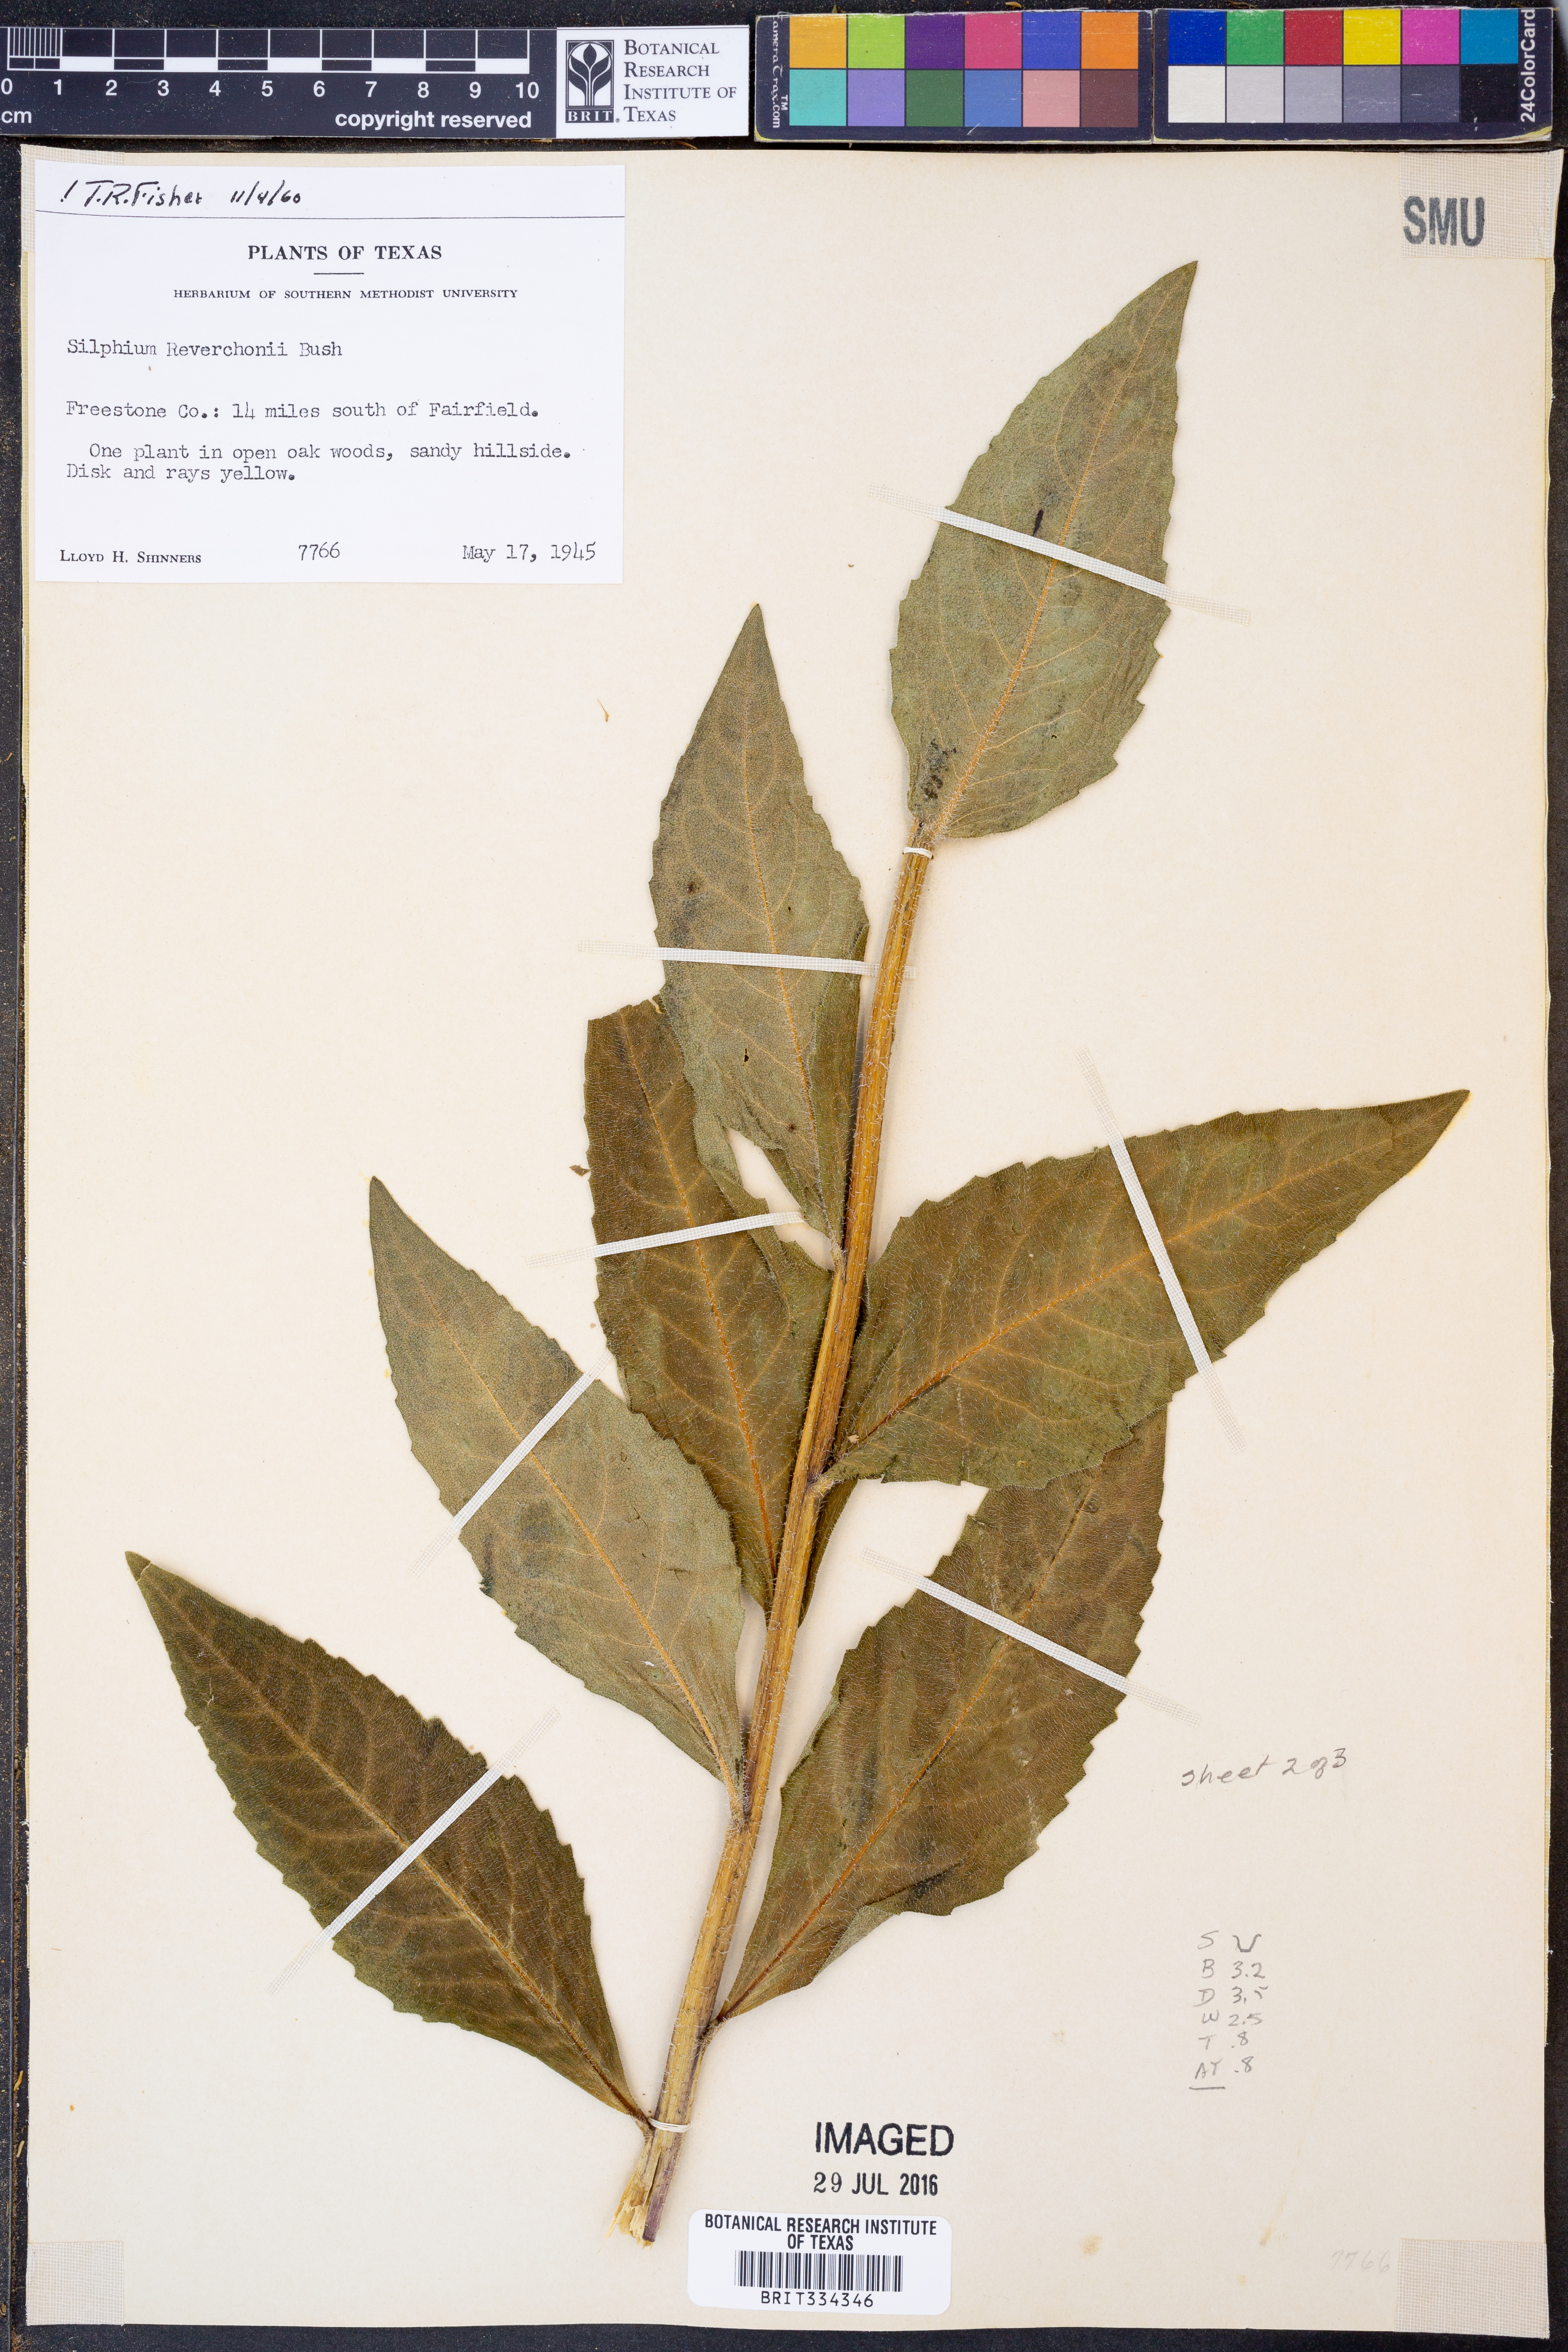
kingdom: Plantae
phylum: Tracheophyta
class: Magnoliopsida
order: Asterales
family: Asteraceae
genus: Silphium
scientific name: Silphium radula
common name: Roughleaf rosinweed
